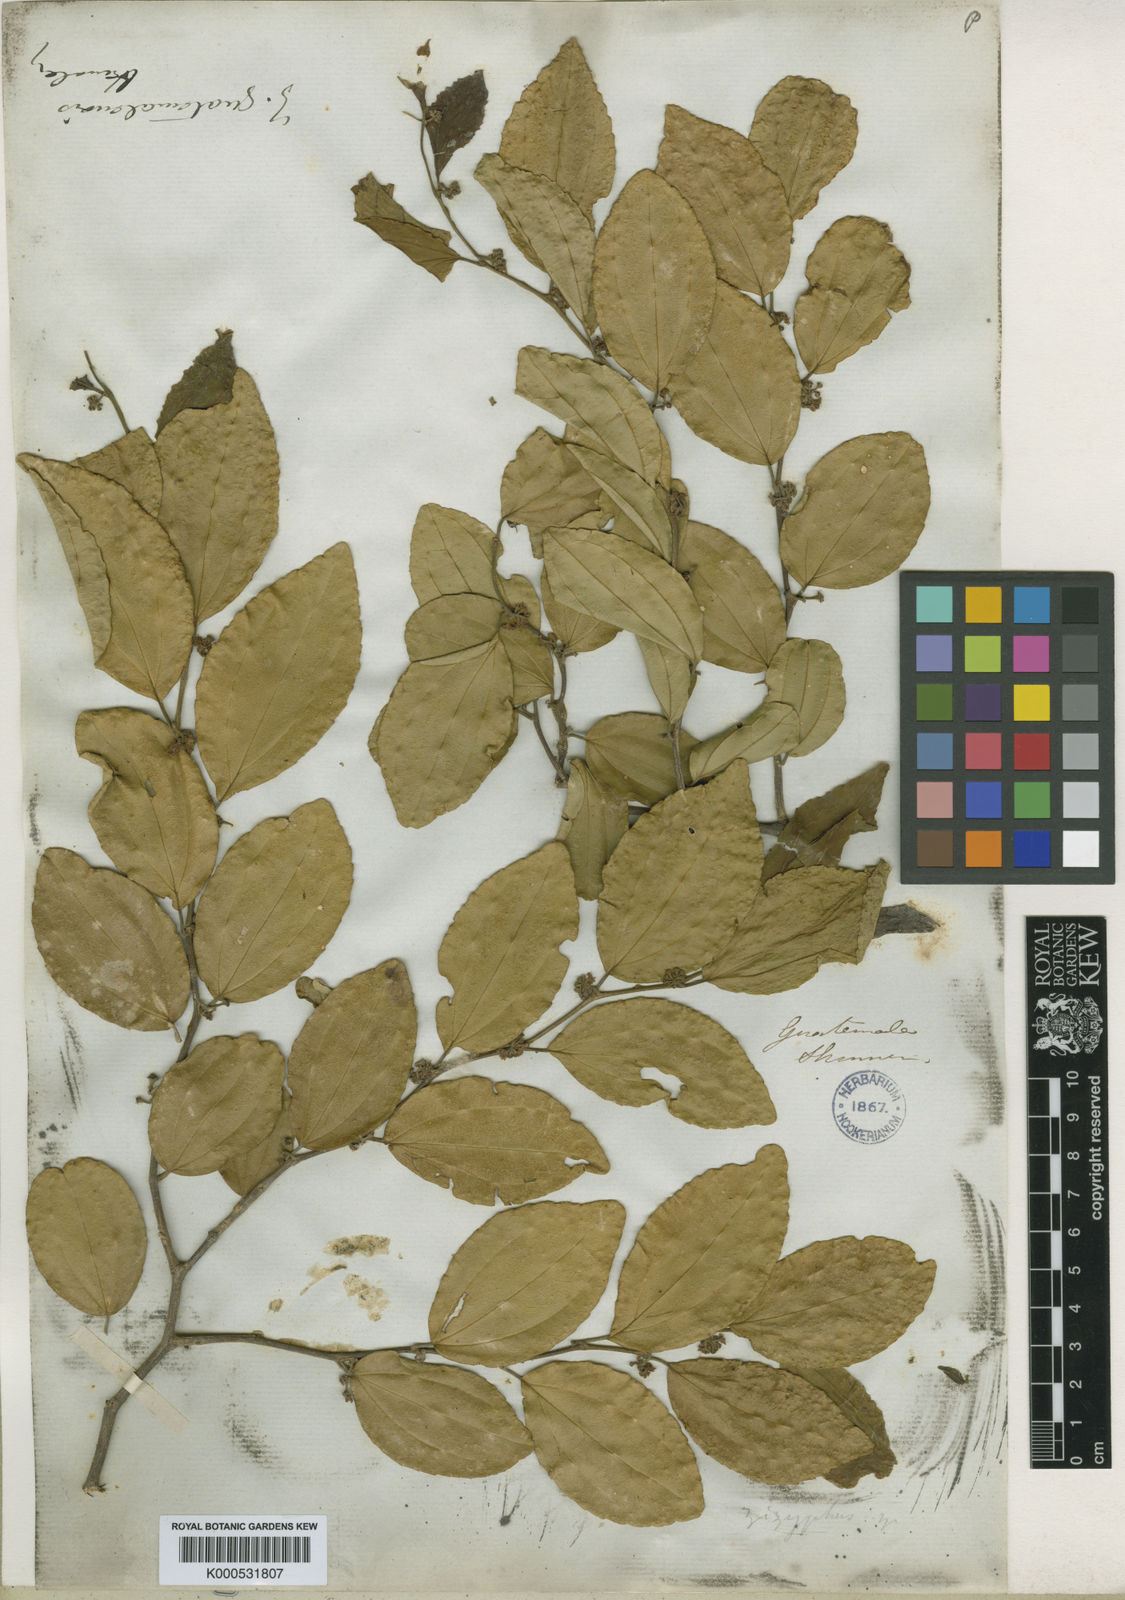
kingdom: Plantae
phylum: Tracheophyta
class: Magnoliopsida
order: Rosales
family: Rhamnaceae
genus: Sarcomphalus
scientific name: Sarcomphalus guatemalensis
